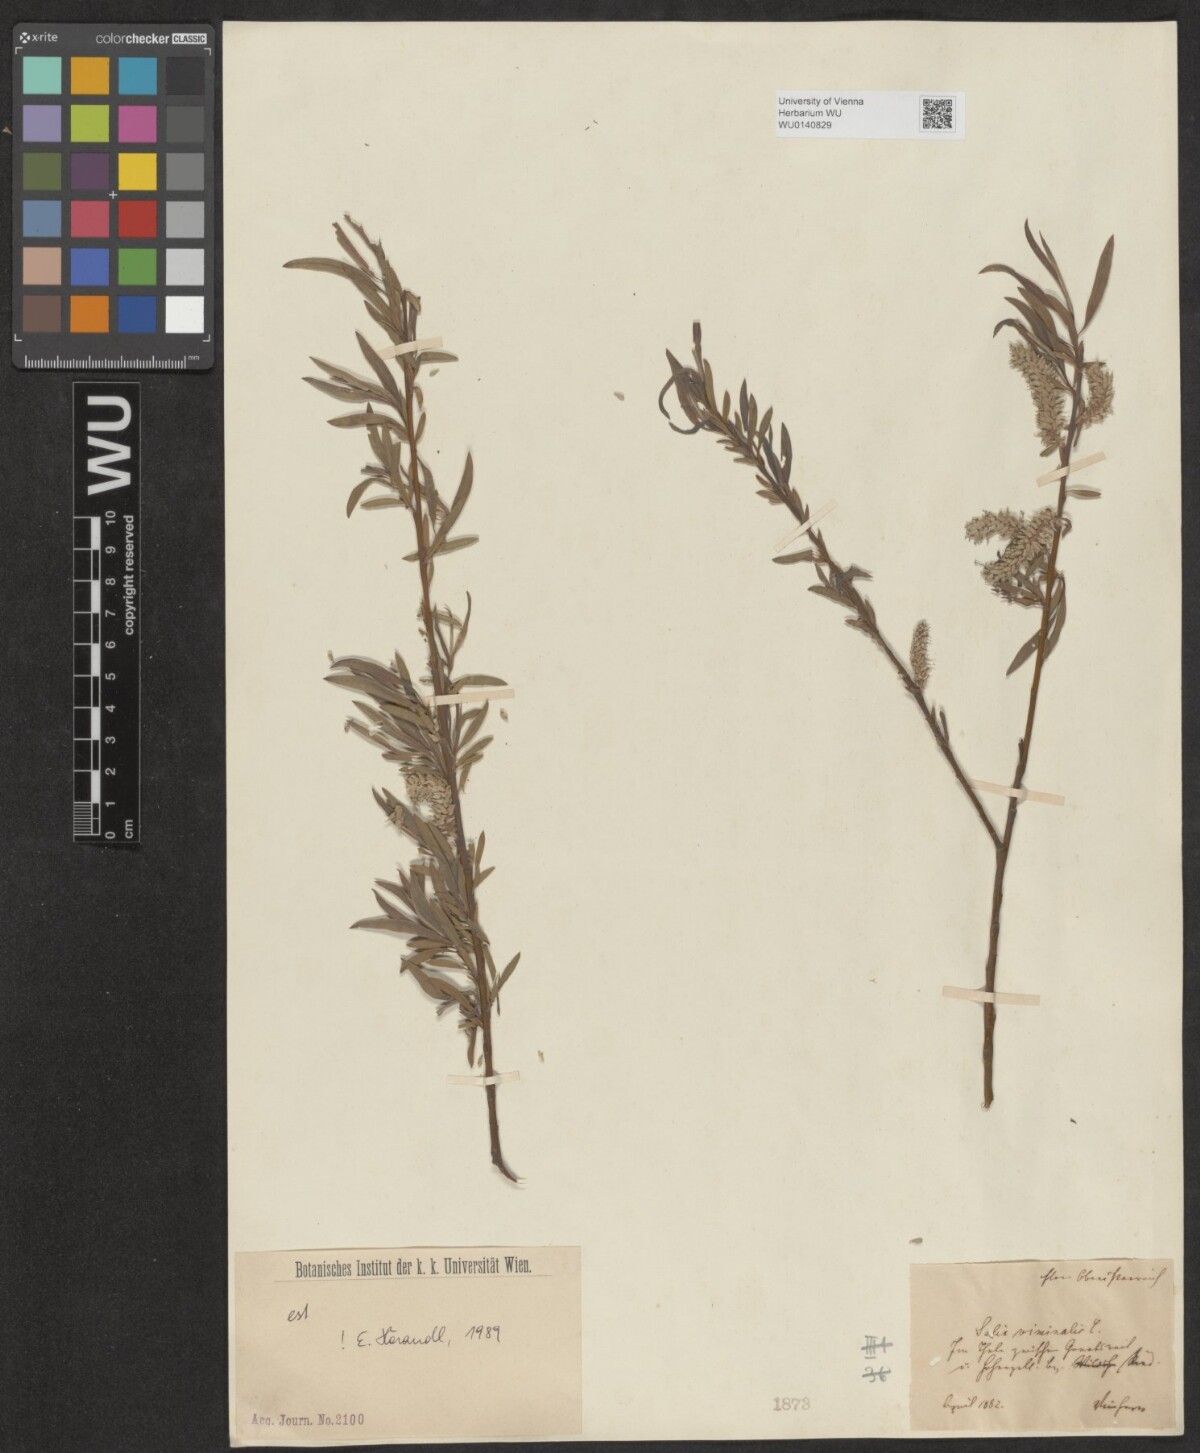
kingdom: Plantae
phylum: Tracheophyta
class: Magnoliopsida
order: Malpighiales
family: Salicaceae
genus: Salix
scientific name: Salix viminalis
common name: Osier
